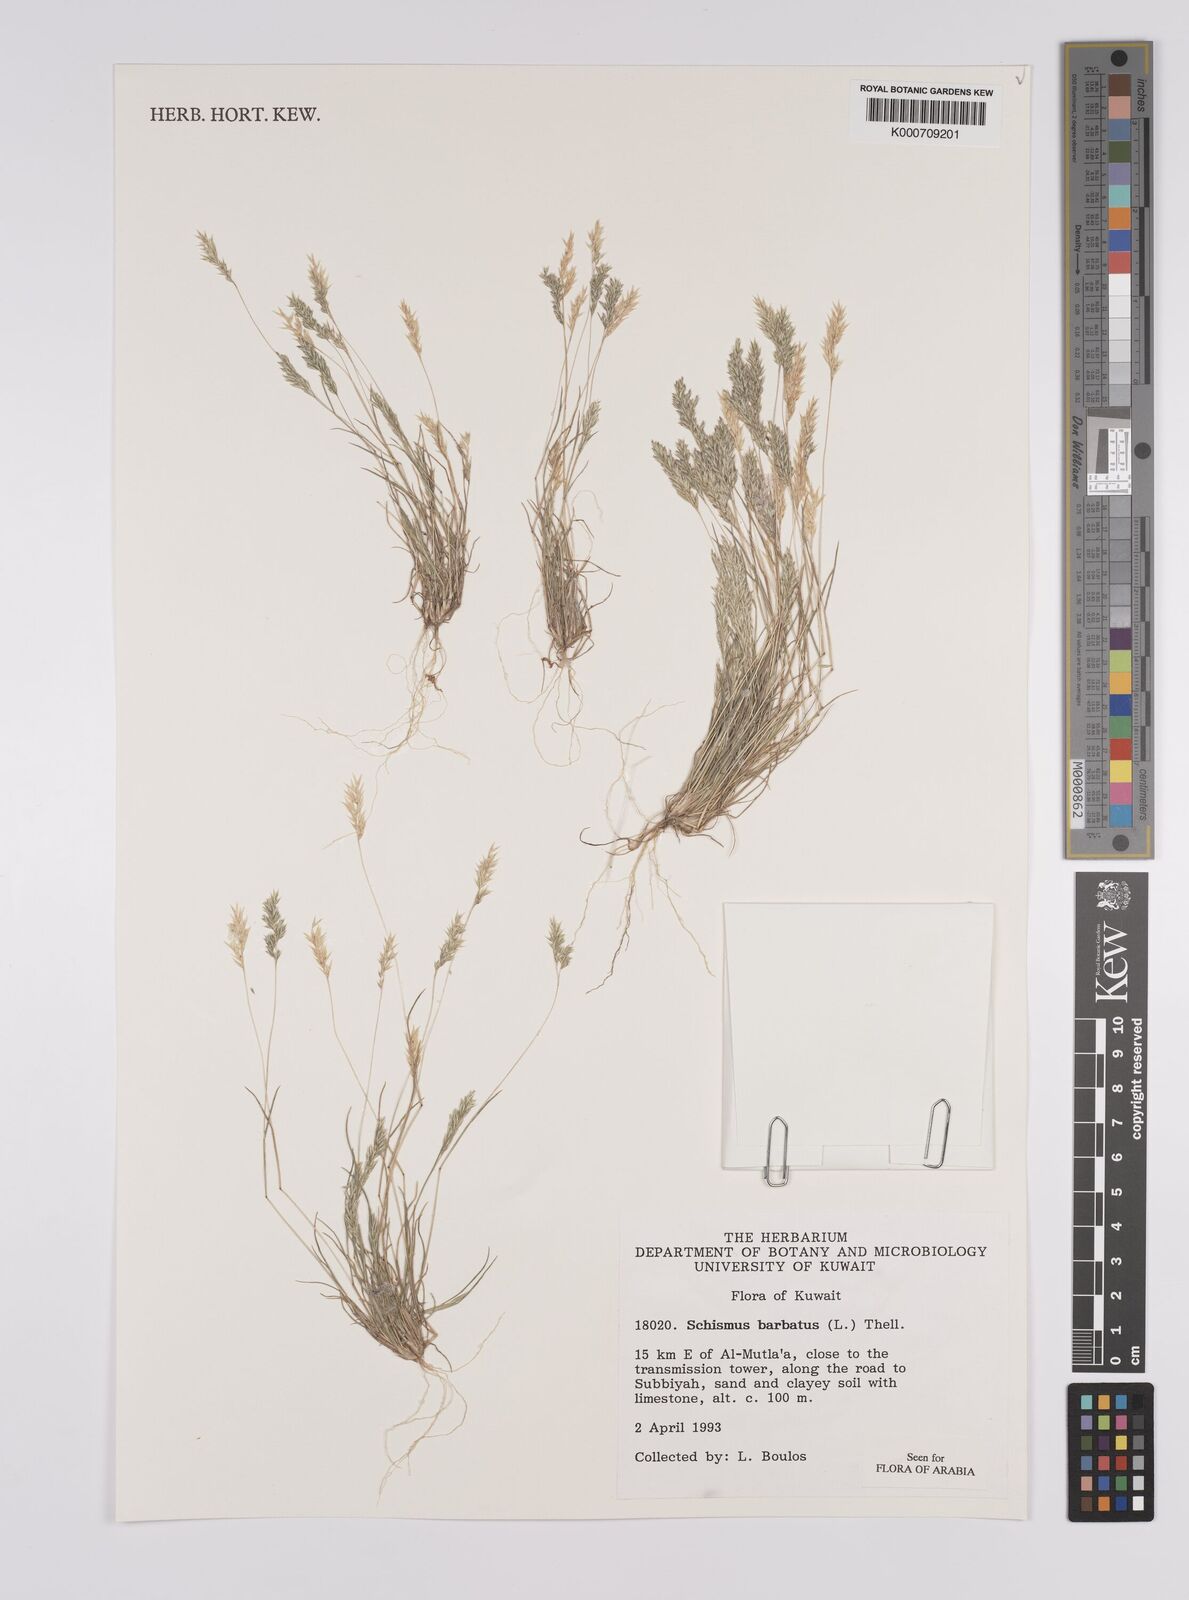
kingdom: Plantae
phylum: Tracheophyta
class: Liliopsida
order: Poales
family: Poaceae
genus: Schismus
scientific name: Schismus barbatus
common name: Kelch-grass
